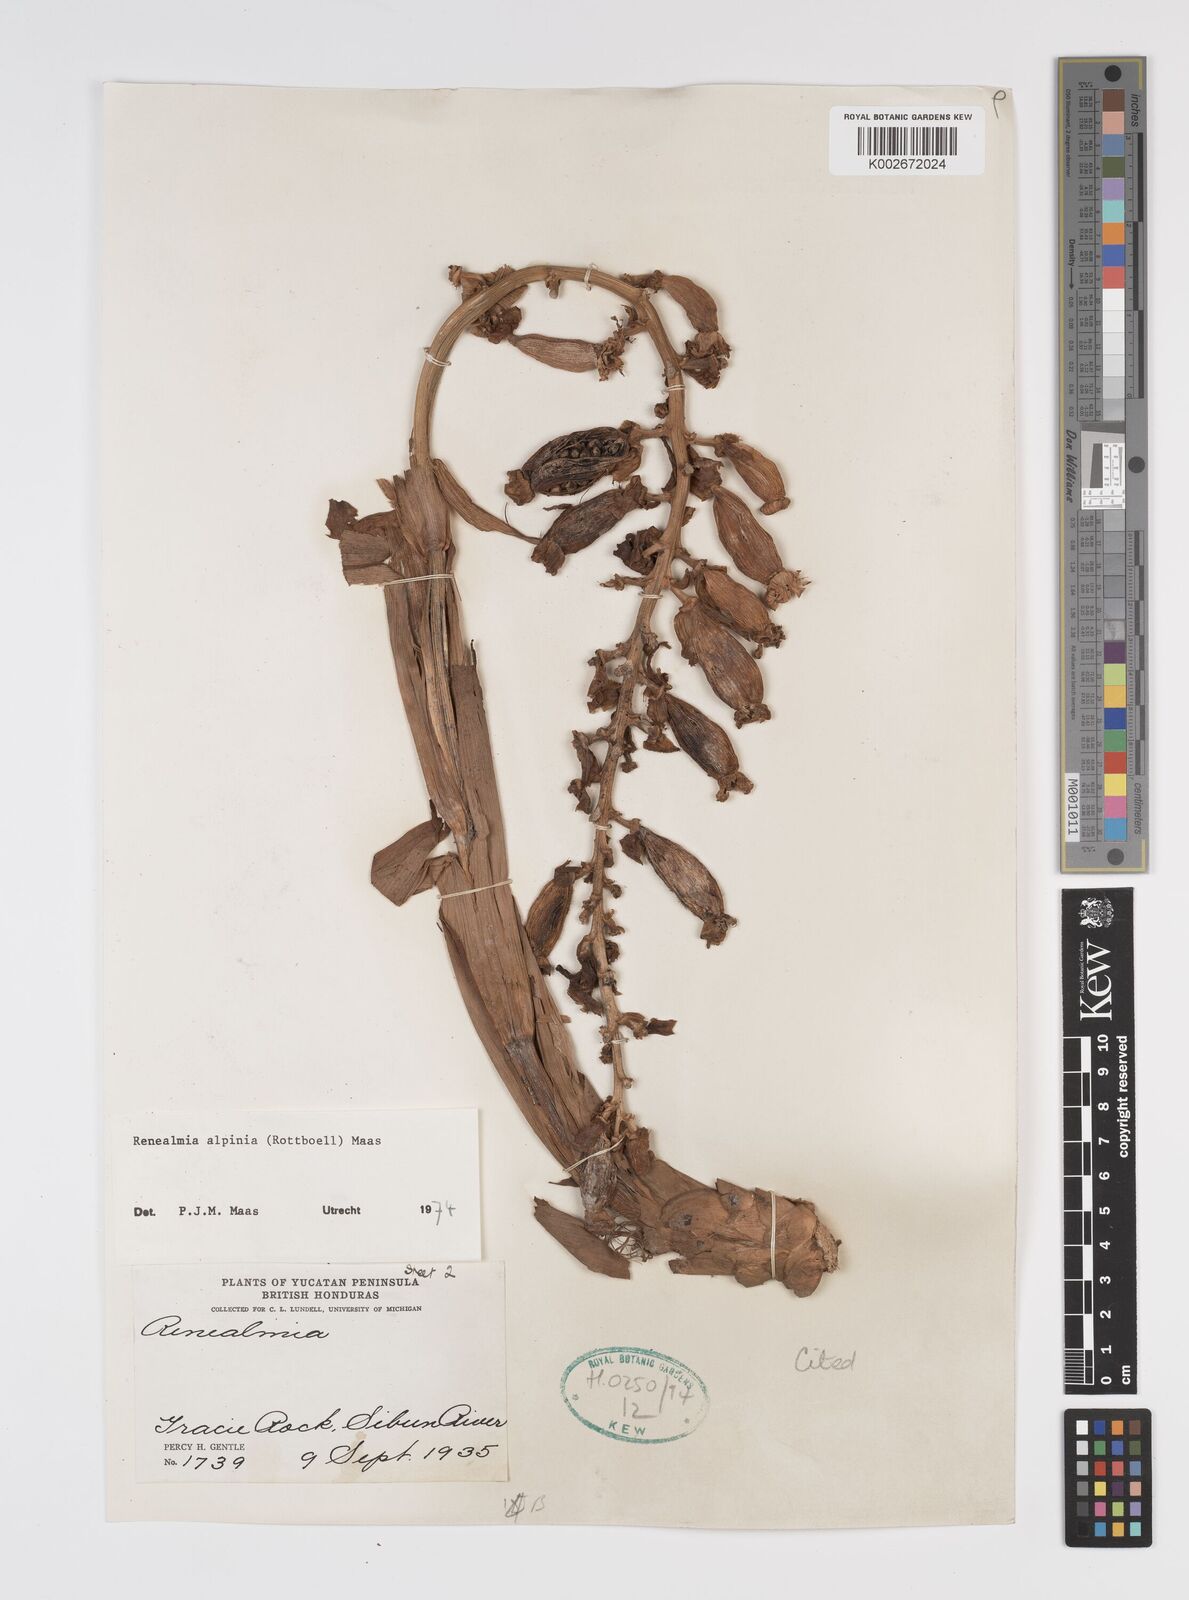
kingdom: Plantae
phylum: Tracheophyta
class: Liliopsida
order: Zingiberales
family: Zingiberaceae
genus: Renealmia
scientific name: Renealmia alpinia
